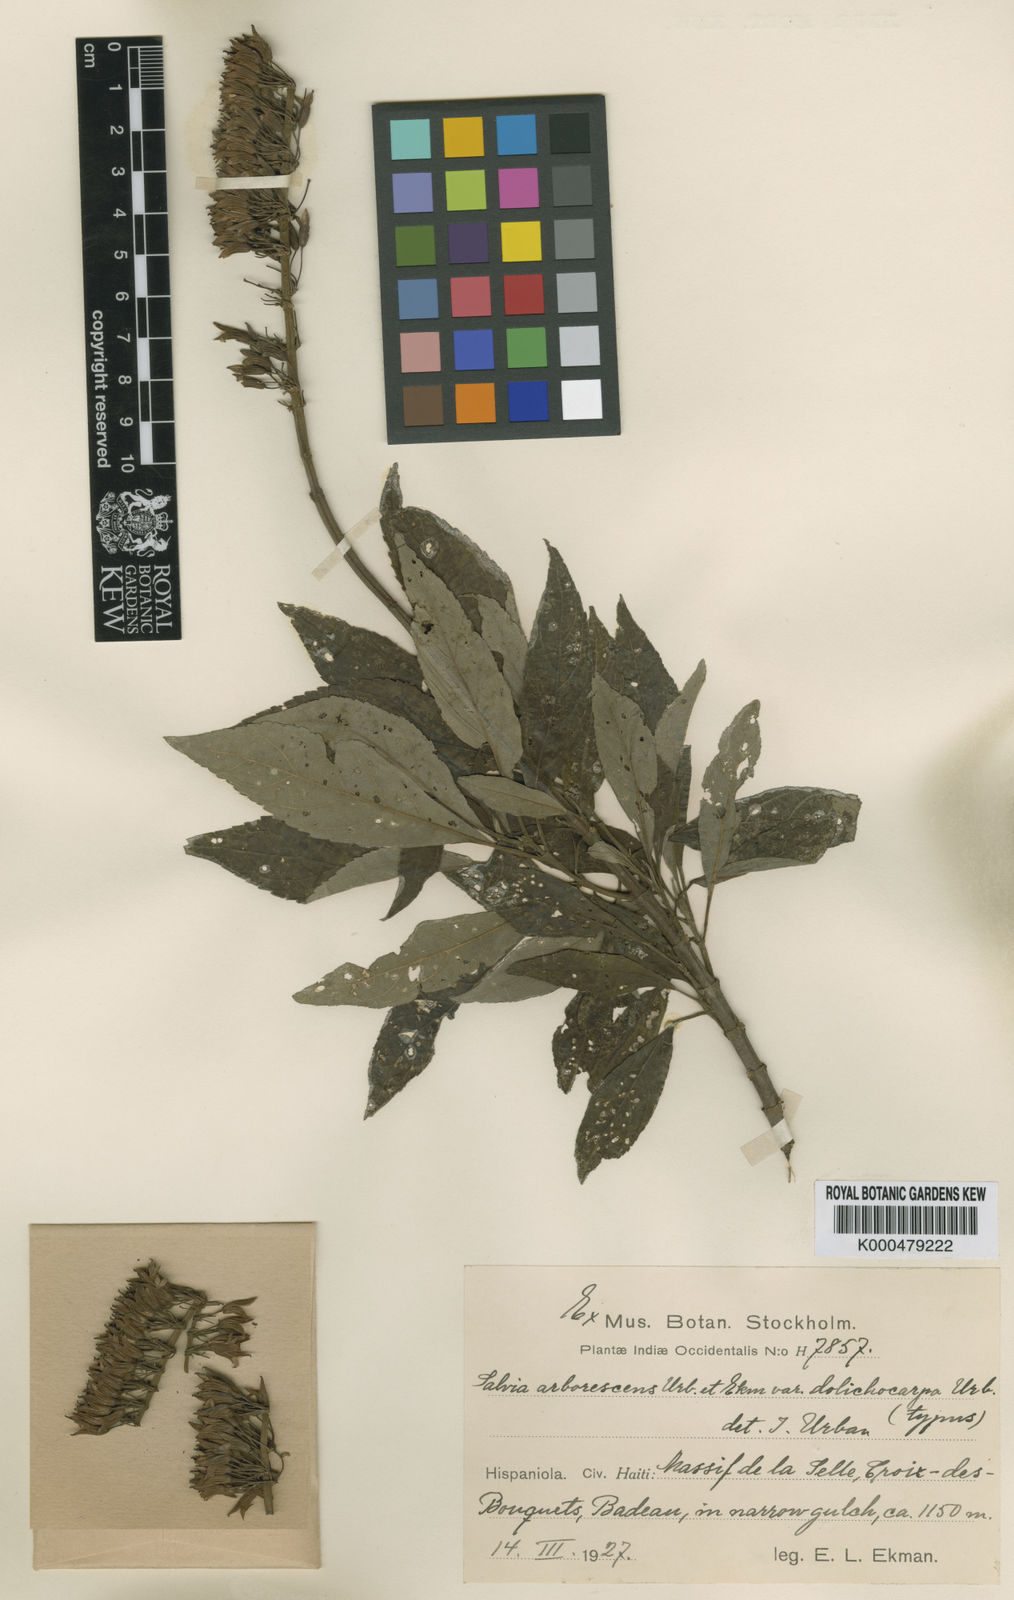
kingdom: Plantae
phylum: Tracheophyta
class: Magnoliopsida
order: Lamiales
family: Lamiaceae
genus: Salvia
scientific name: Salvia arborescens
